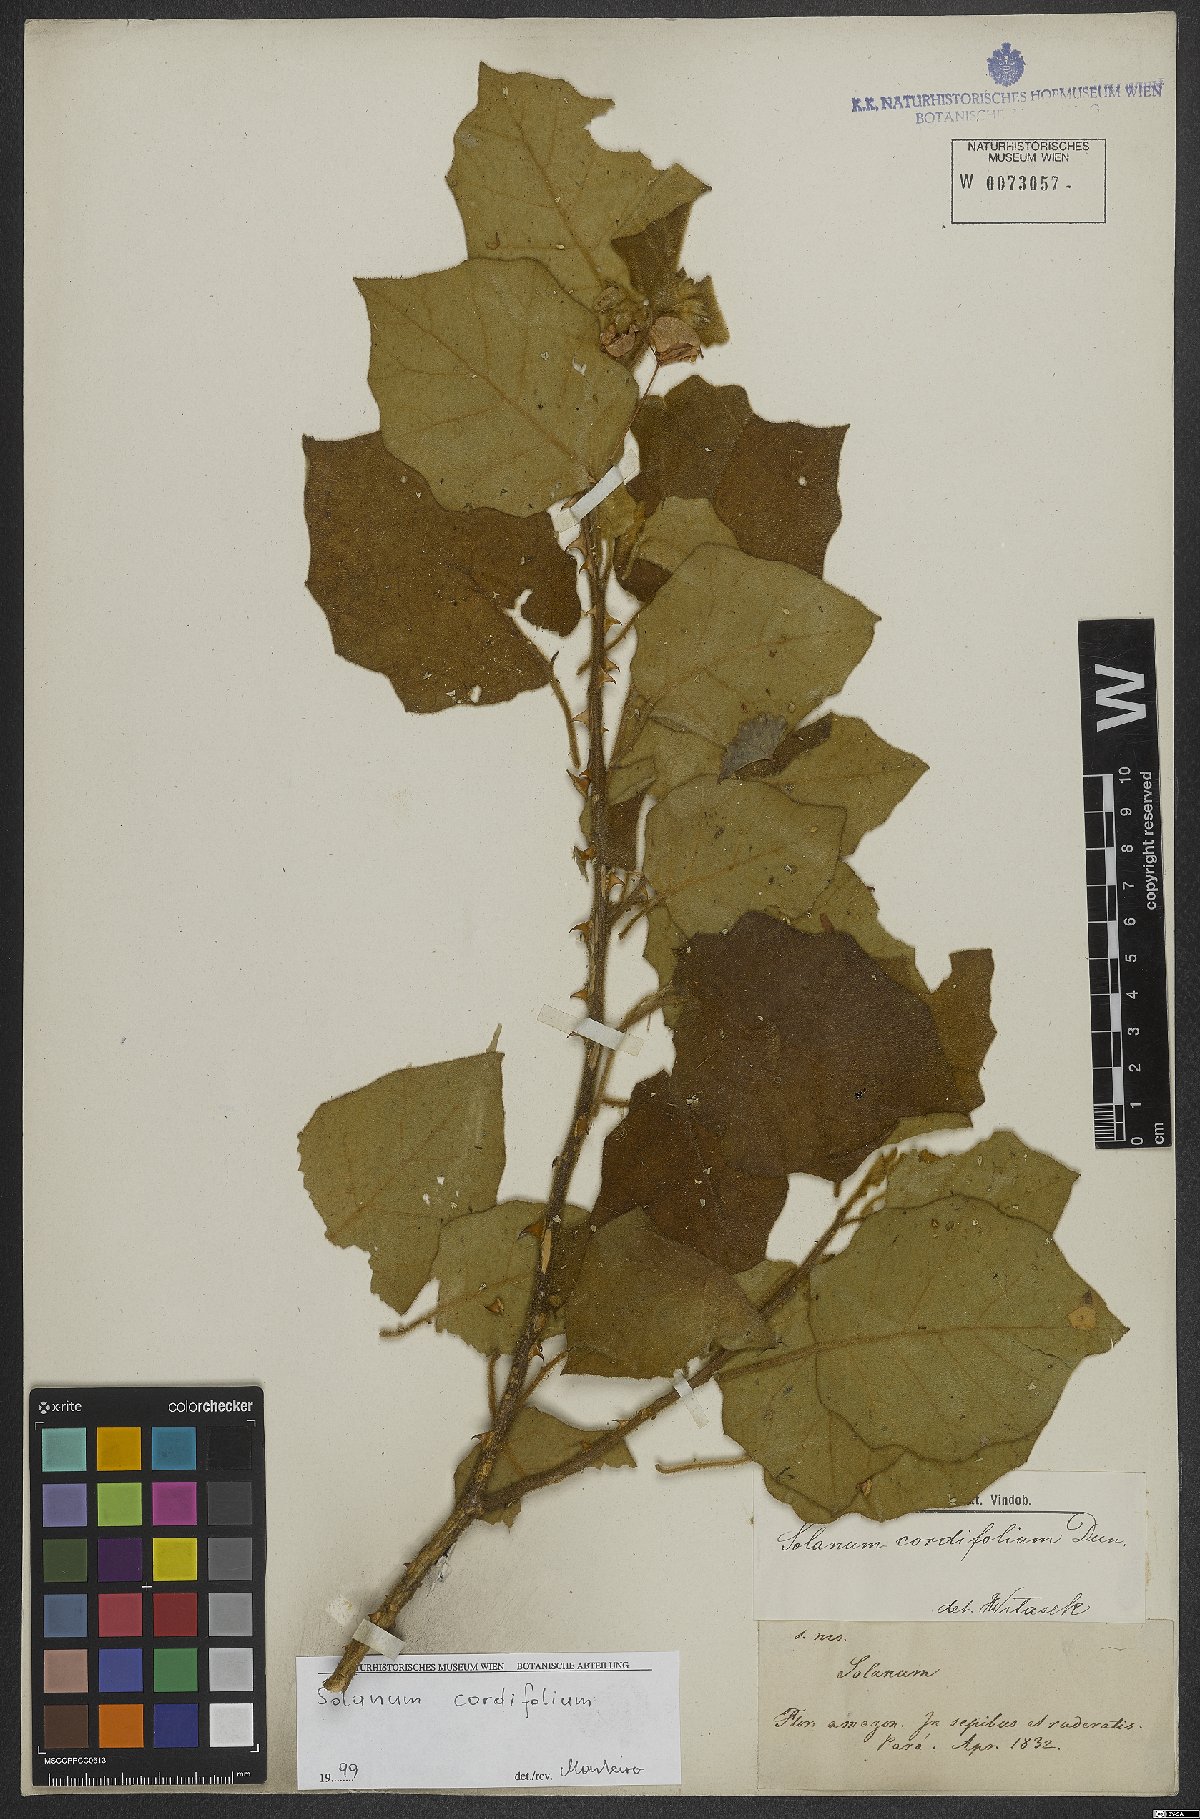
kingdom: Plantae
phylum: Tracheophyta
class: Magnoliopsida
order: Solanales
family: Solanaceae
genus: Solanum
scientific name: Solanum cordifolium
